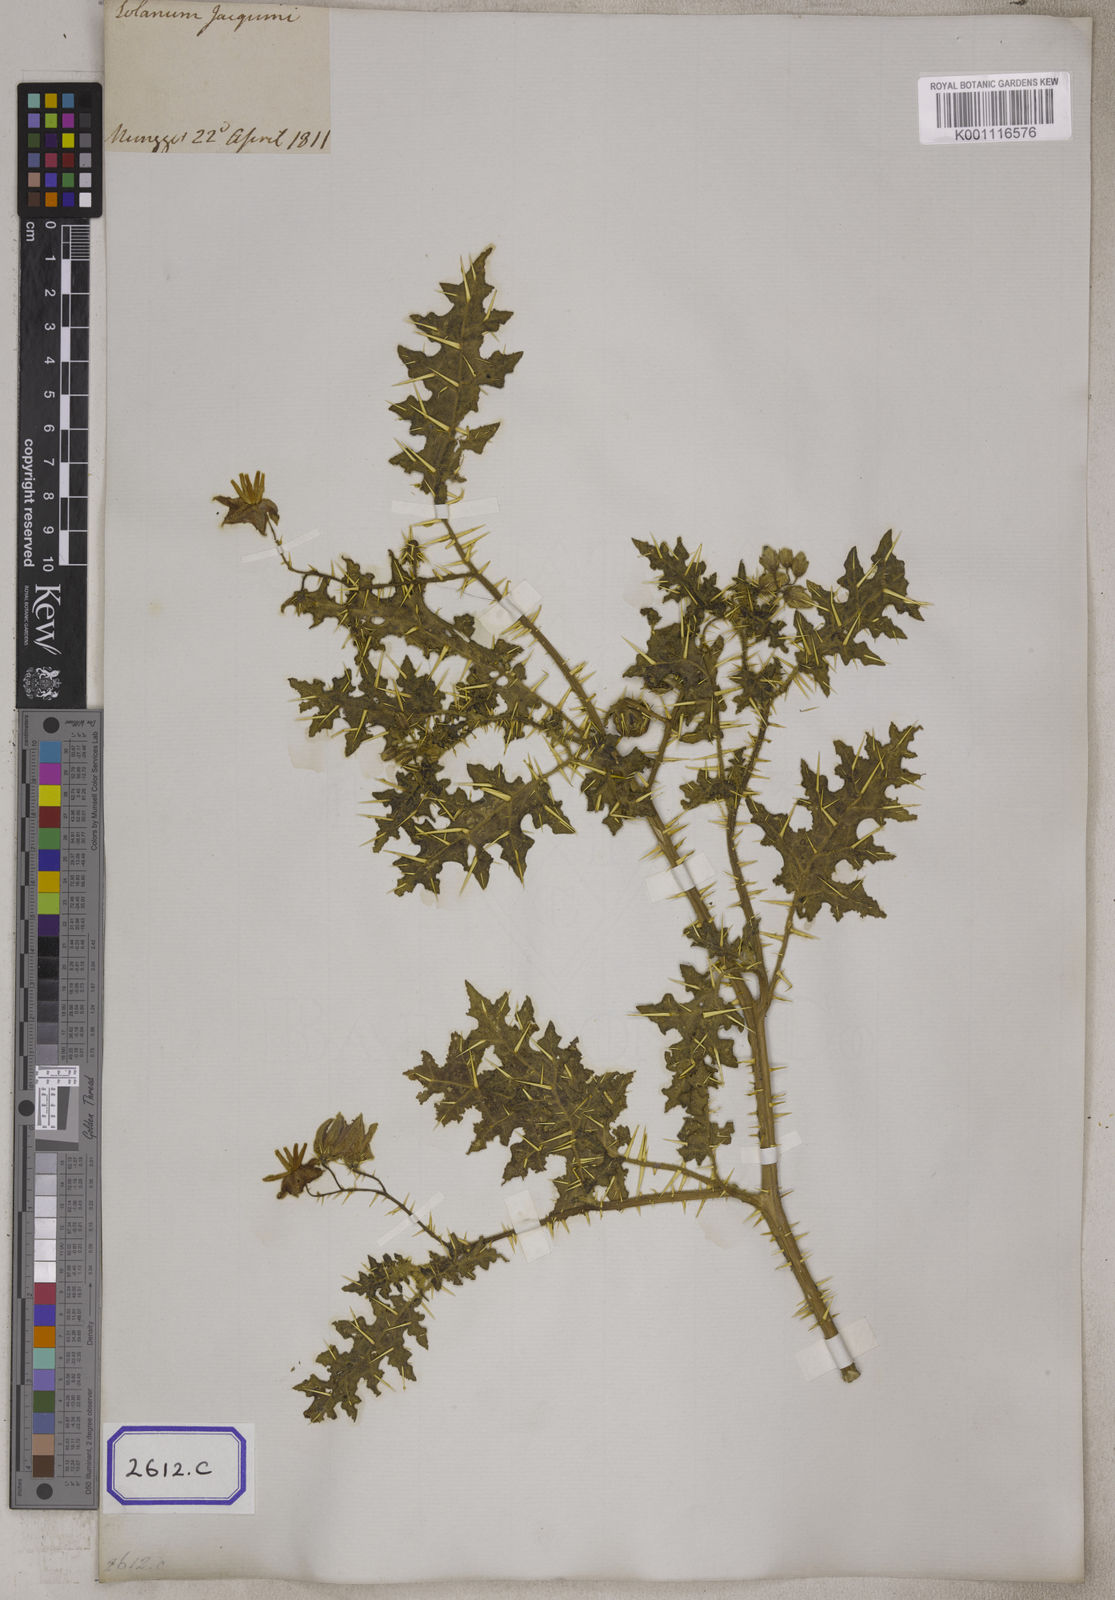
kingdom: Plantae
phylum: Tracheophyta
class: Magnoliopsida
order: Solanales
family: Solanaceae
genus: Solanum
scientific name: Solanum virginianum
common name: Surattense nightshade
